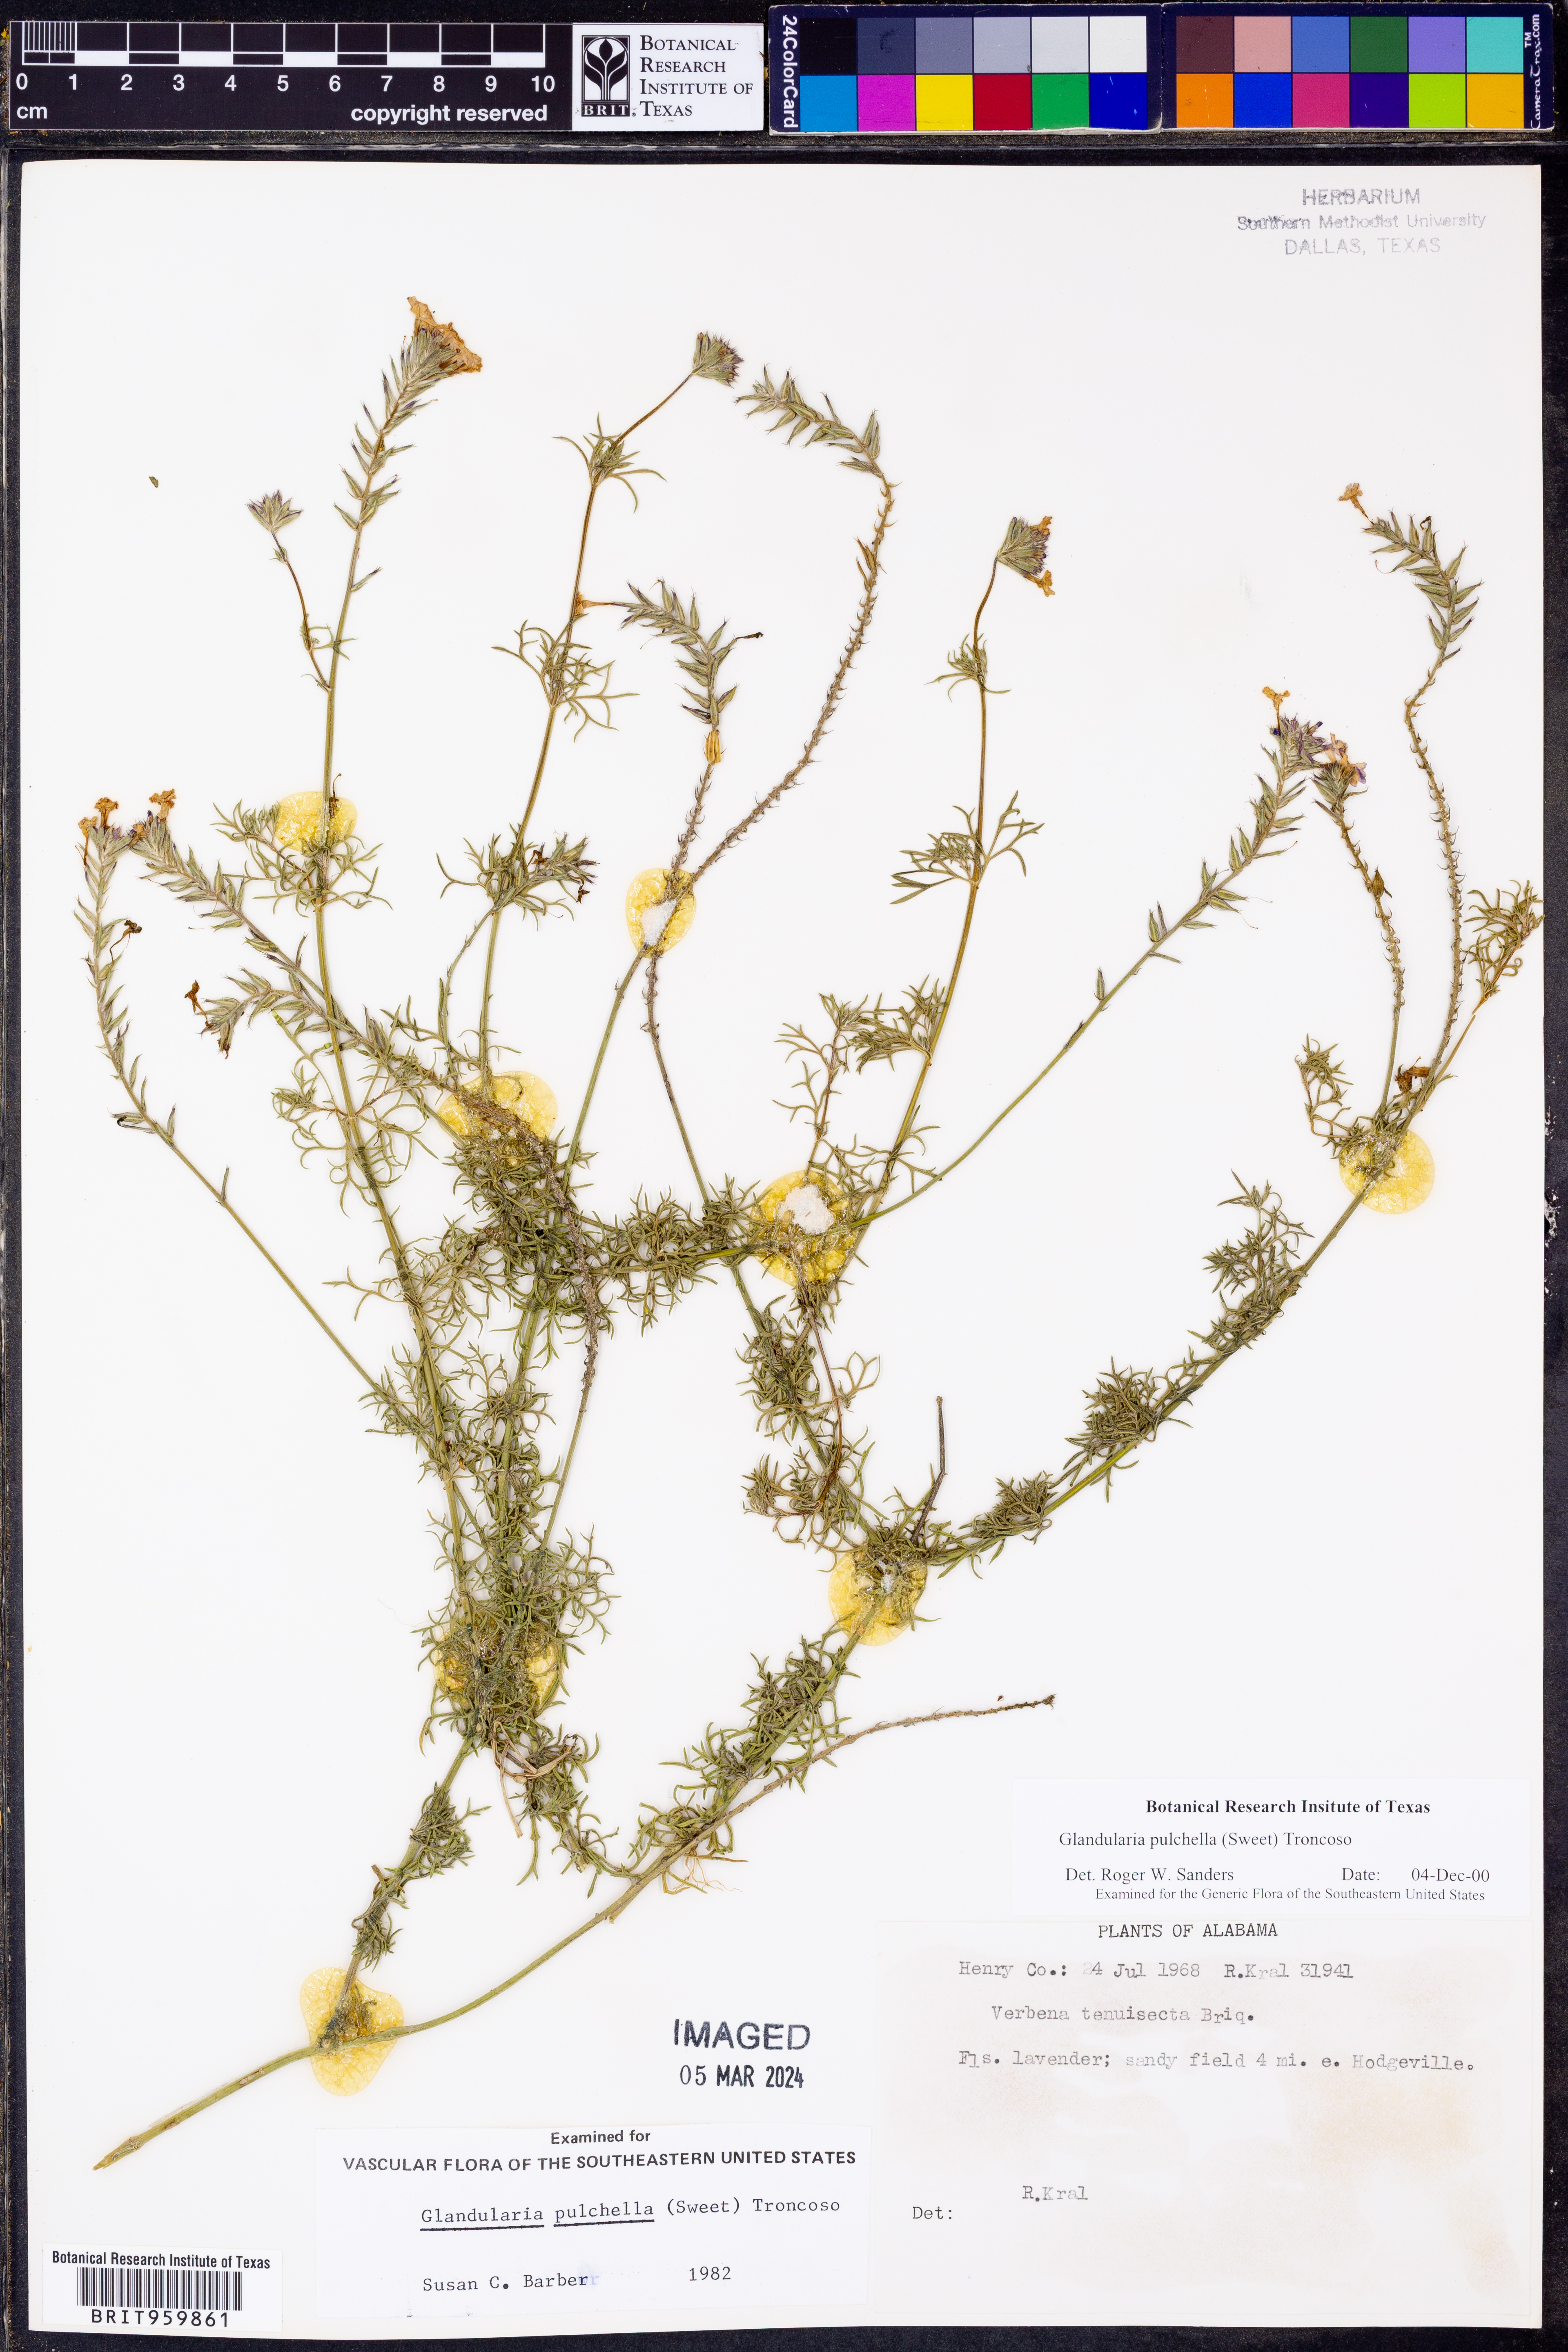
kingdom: Plantae
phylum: Tracheophyta
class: Magnoliopsida
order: Lamiales
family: Verbenaceae
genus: Verbena
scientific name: Verbena tenera
